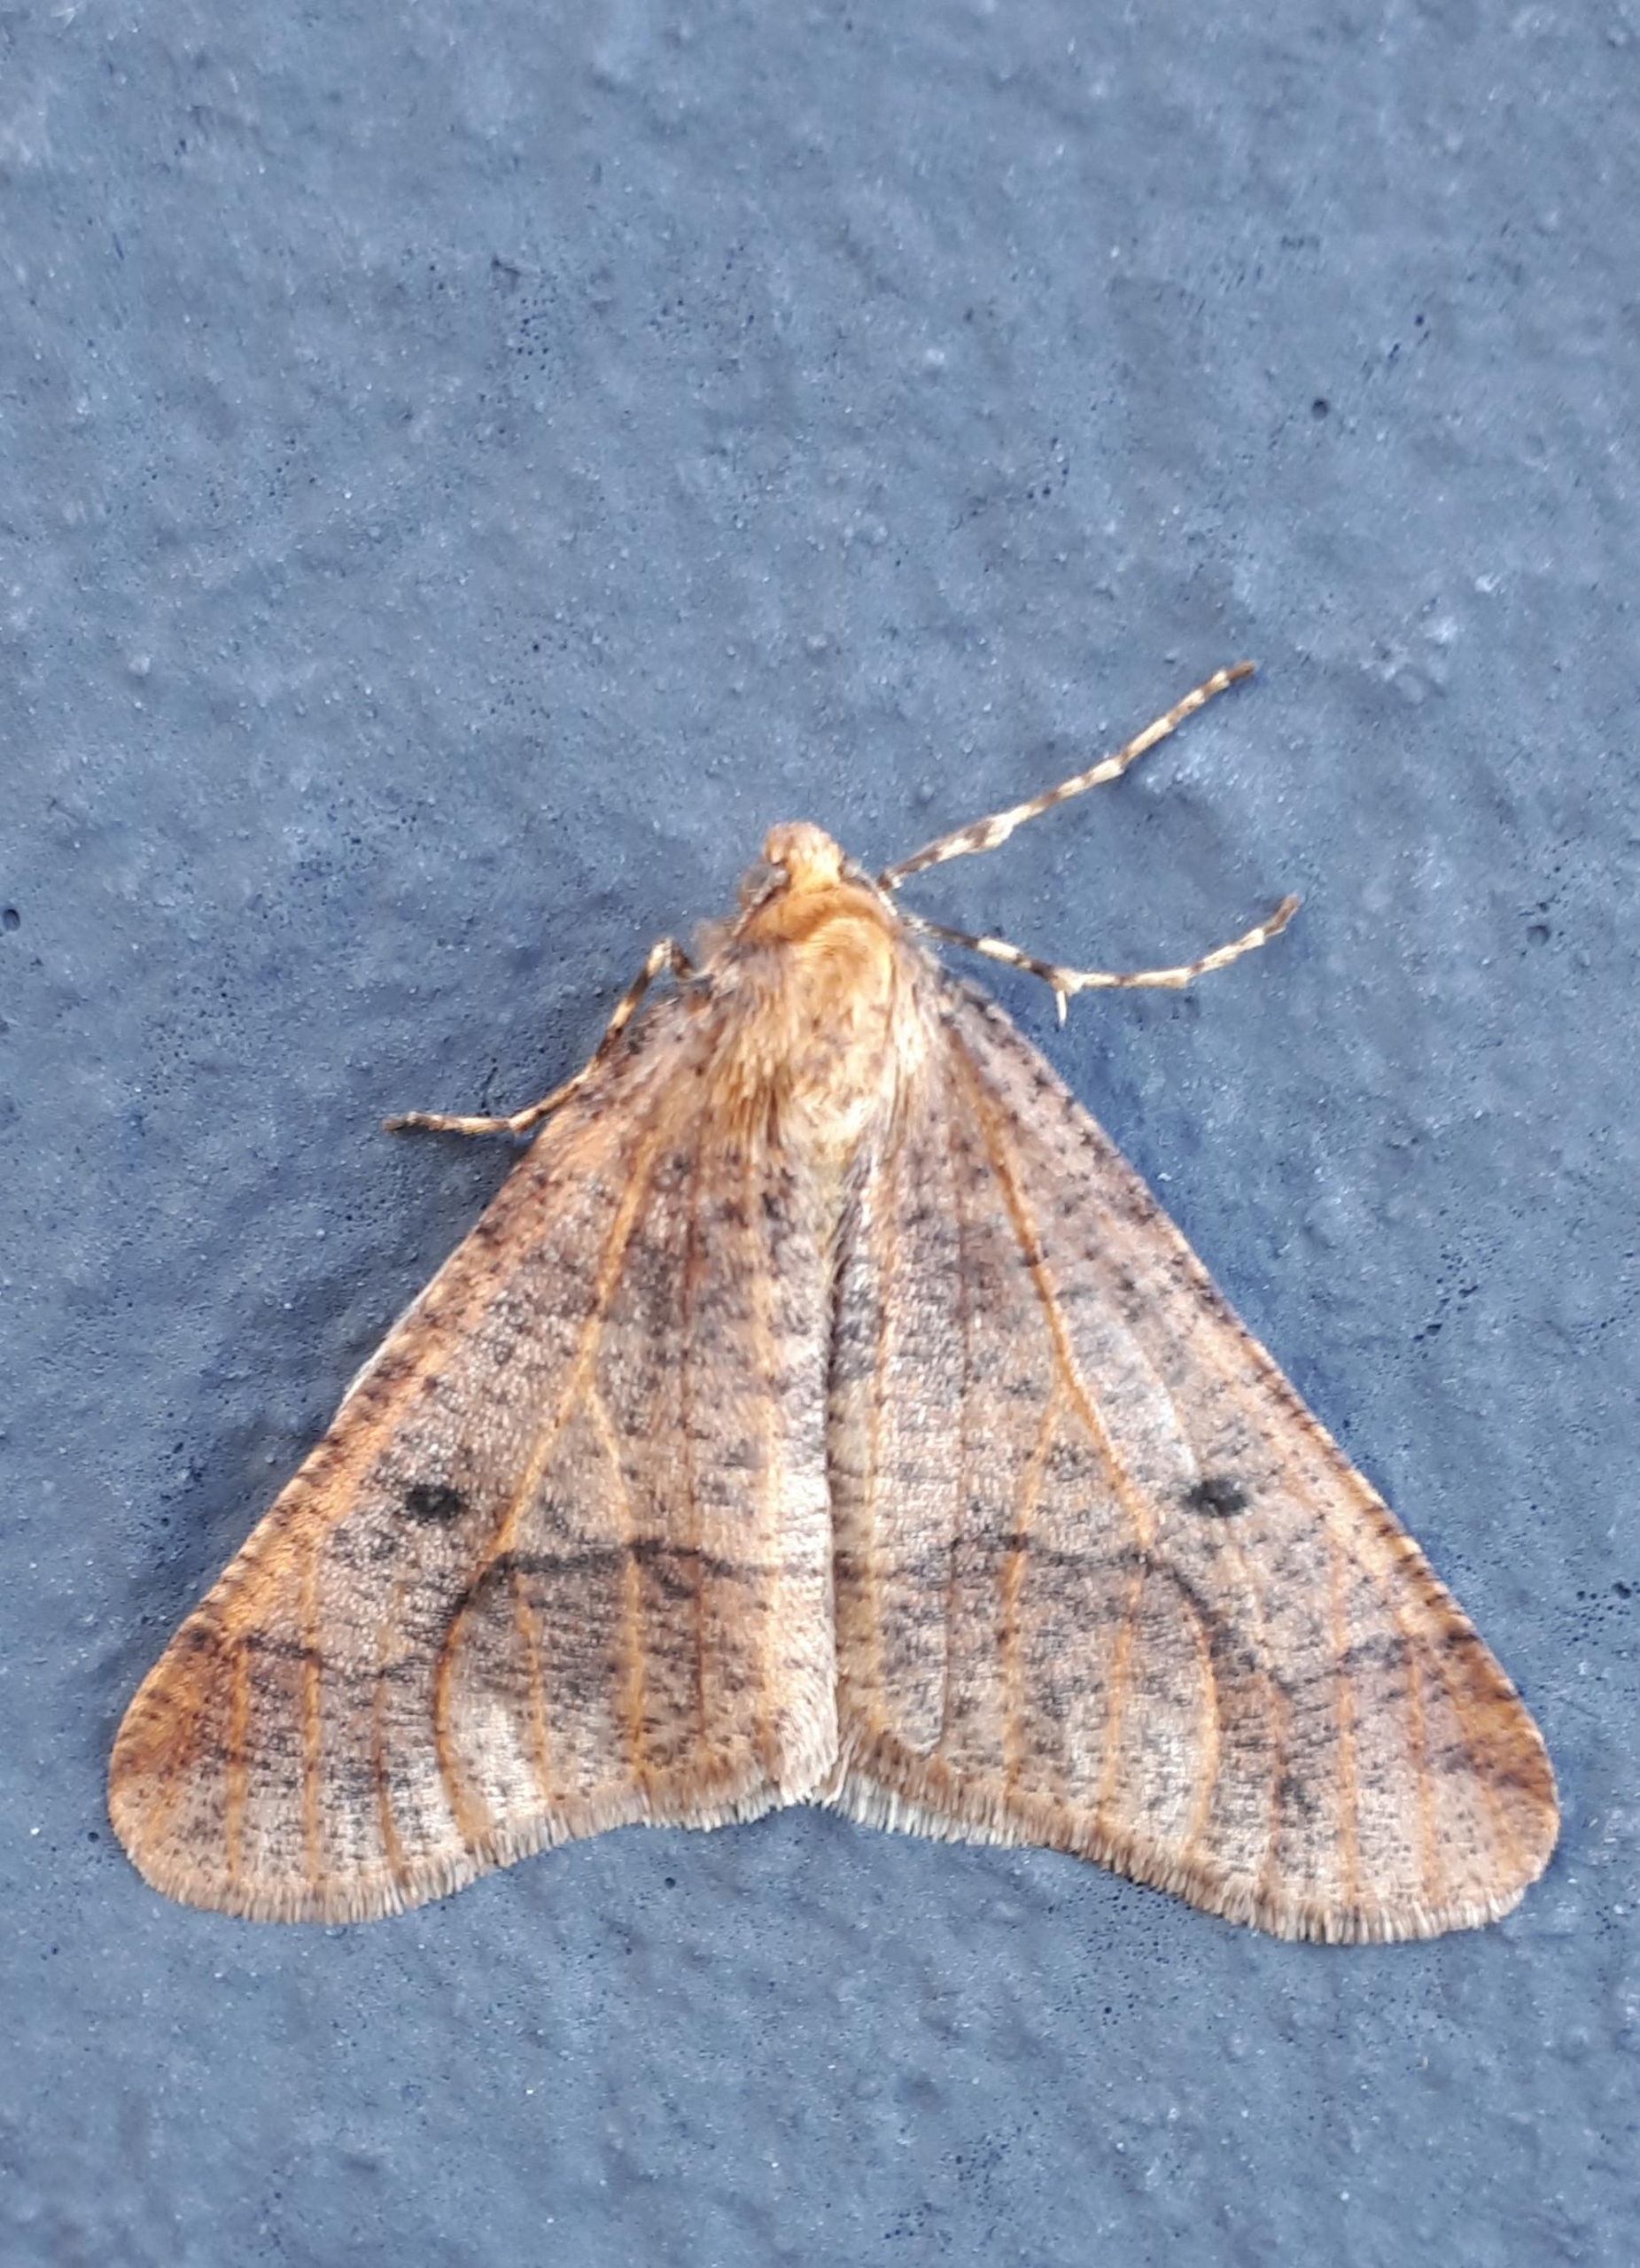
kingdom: Animalia
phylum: Arthropoda
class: Insecta
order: Lepidoptera
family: Geometridae
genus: Erannis
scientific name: Erannis defoliaria
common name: Stor frostmåler
